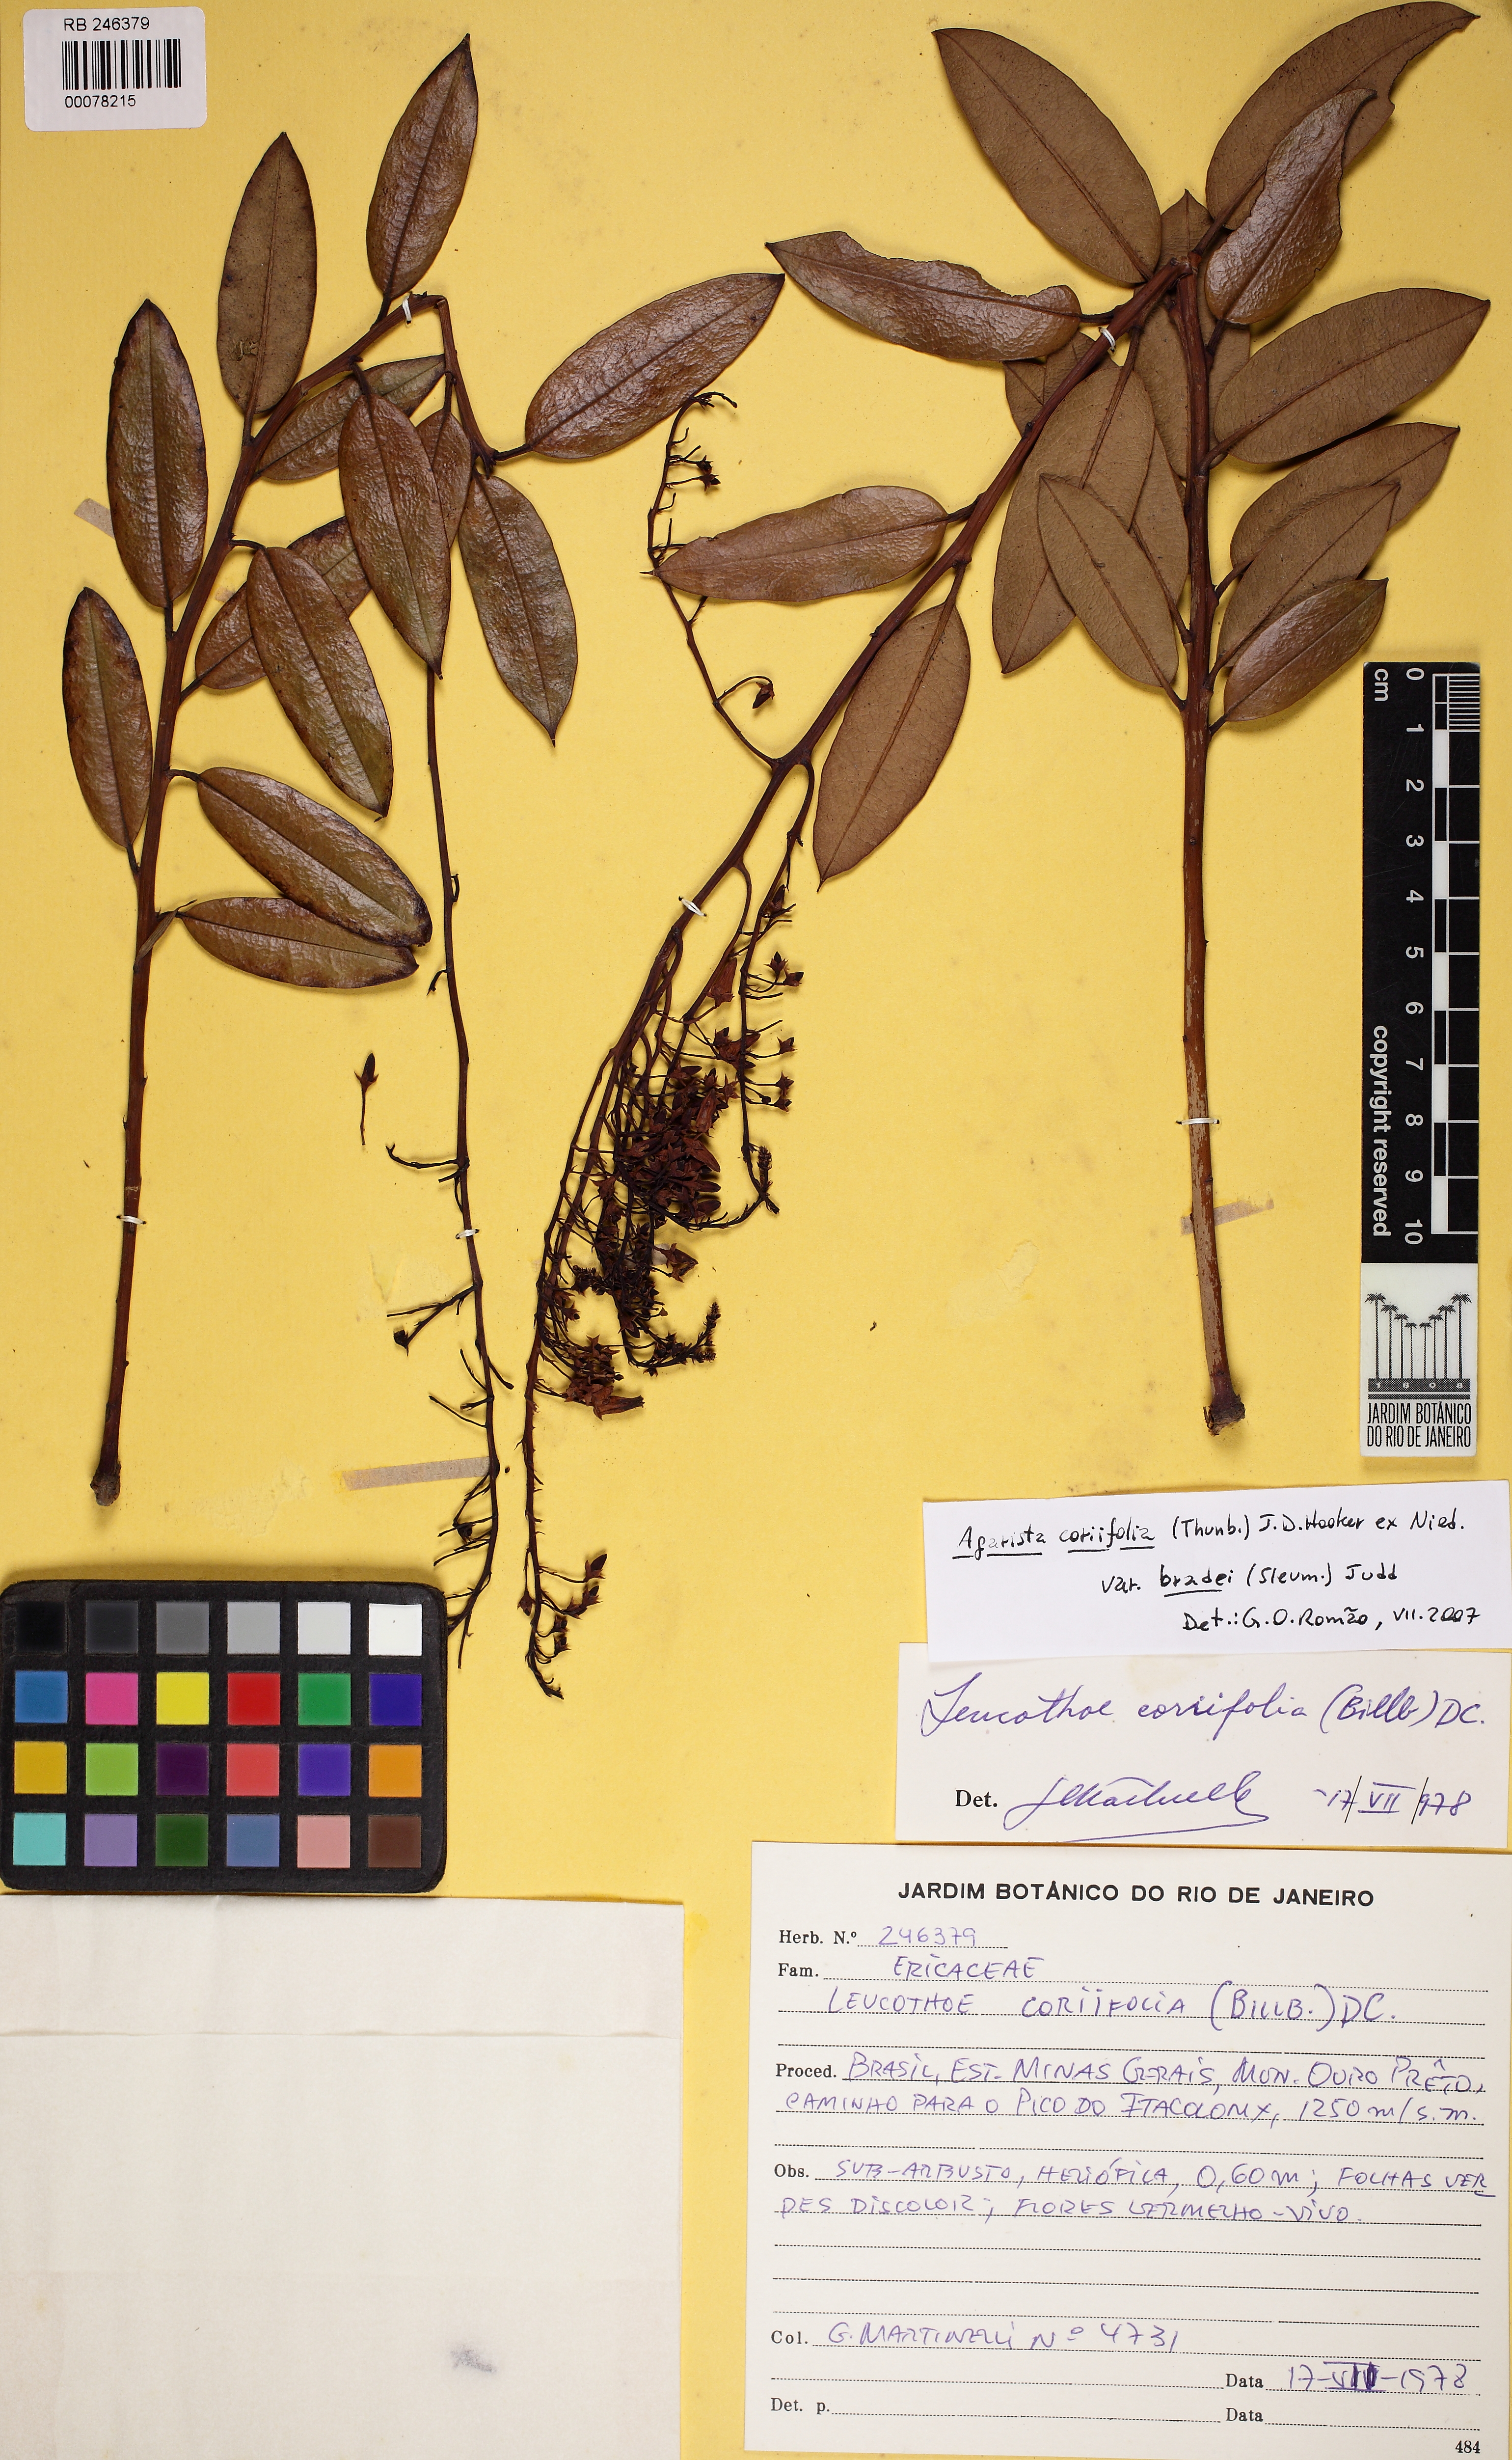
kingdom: Plantae
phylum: Tracheophyta
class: Magnoliopsida
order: Ericales
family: Ericaceae
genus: Agarista
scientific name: Agarista coriifolia
